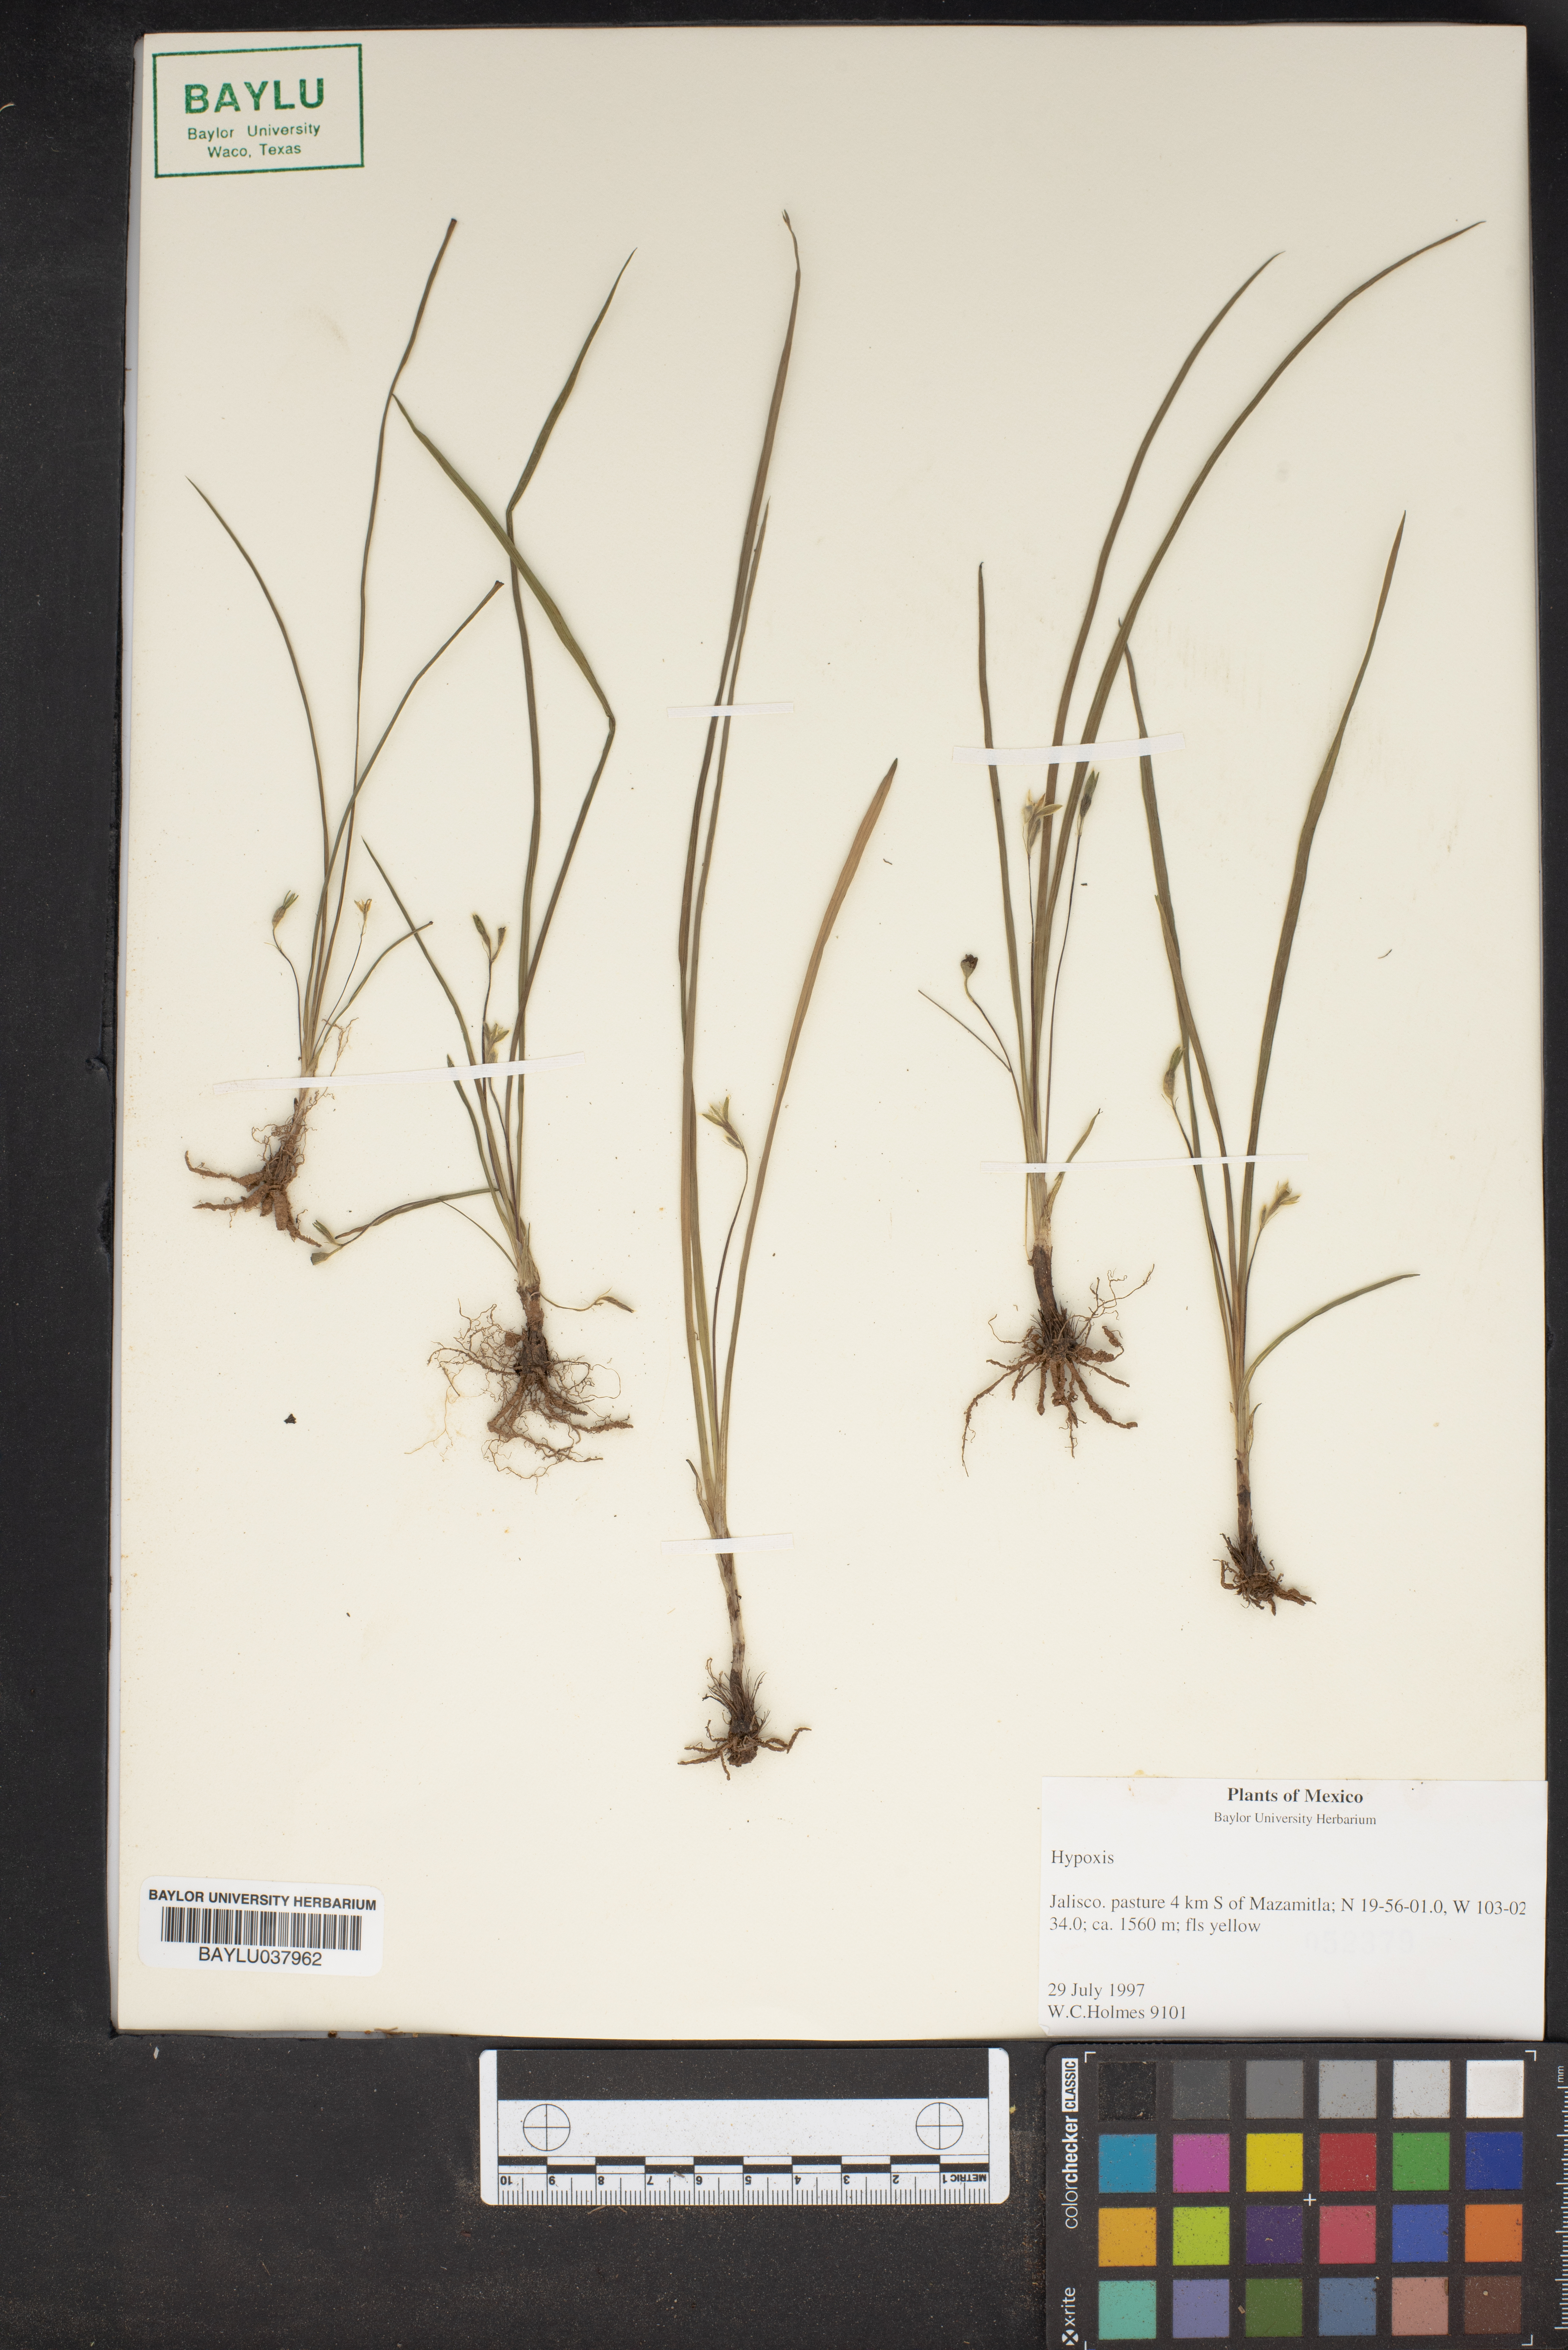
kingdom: Plantae
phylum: Tracheophyta
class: Liliopsida
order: Asparagales
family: Hypoxidaceae
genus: Hypoxis
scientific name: Hypoxis
